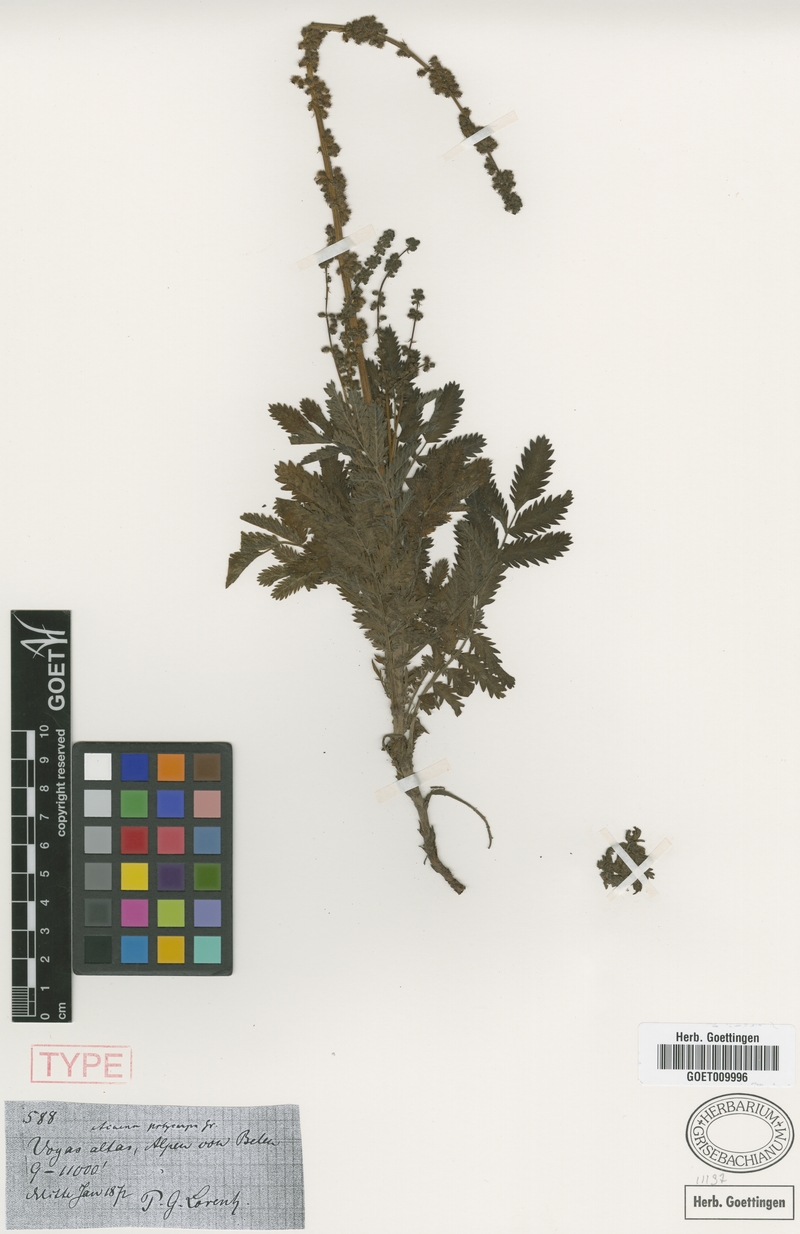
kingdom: Plantae
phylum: Tracheophyta
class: Magnoliopsida
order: Rosales
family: Rosaceae
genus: Acaena
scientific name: Acaena stricta
